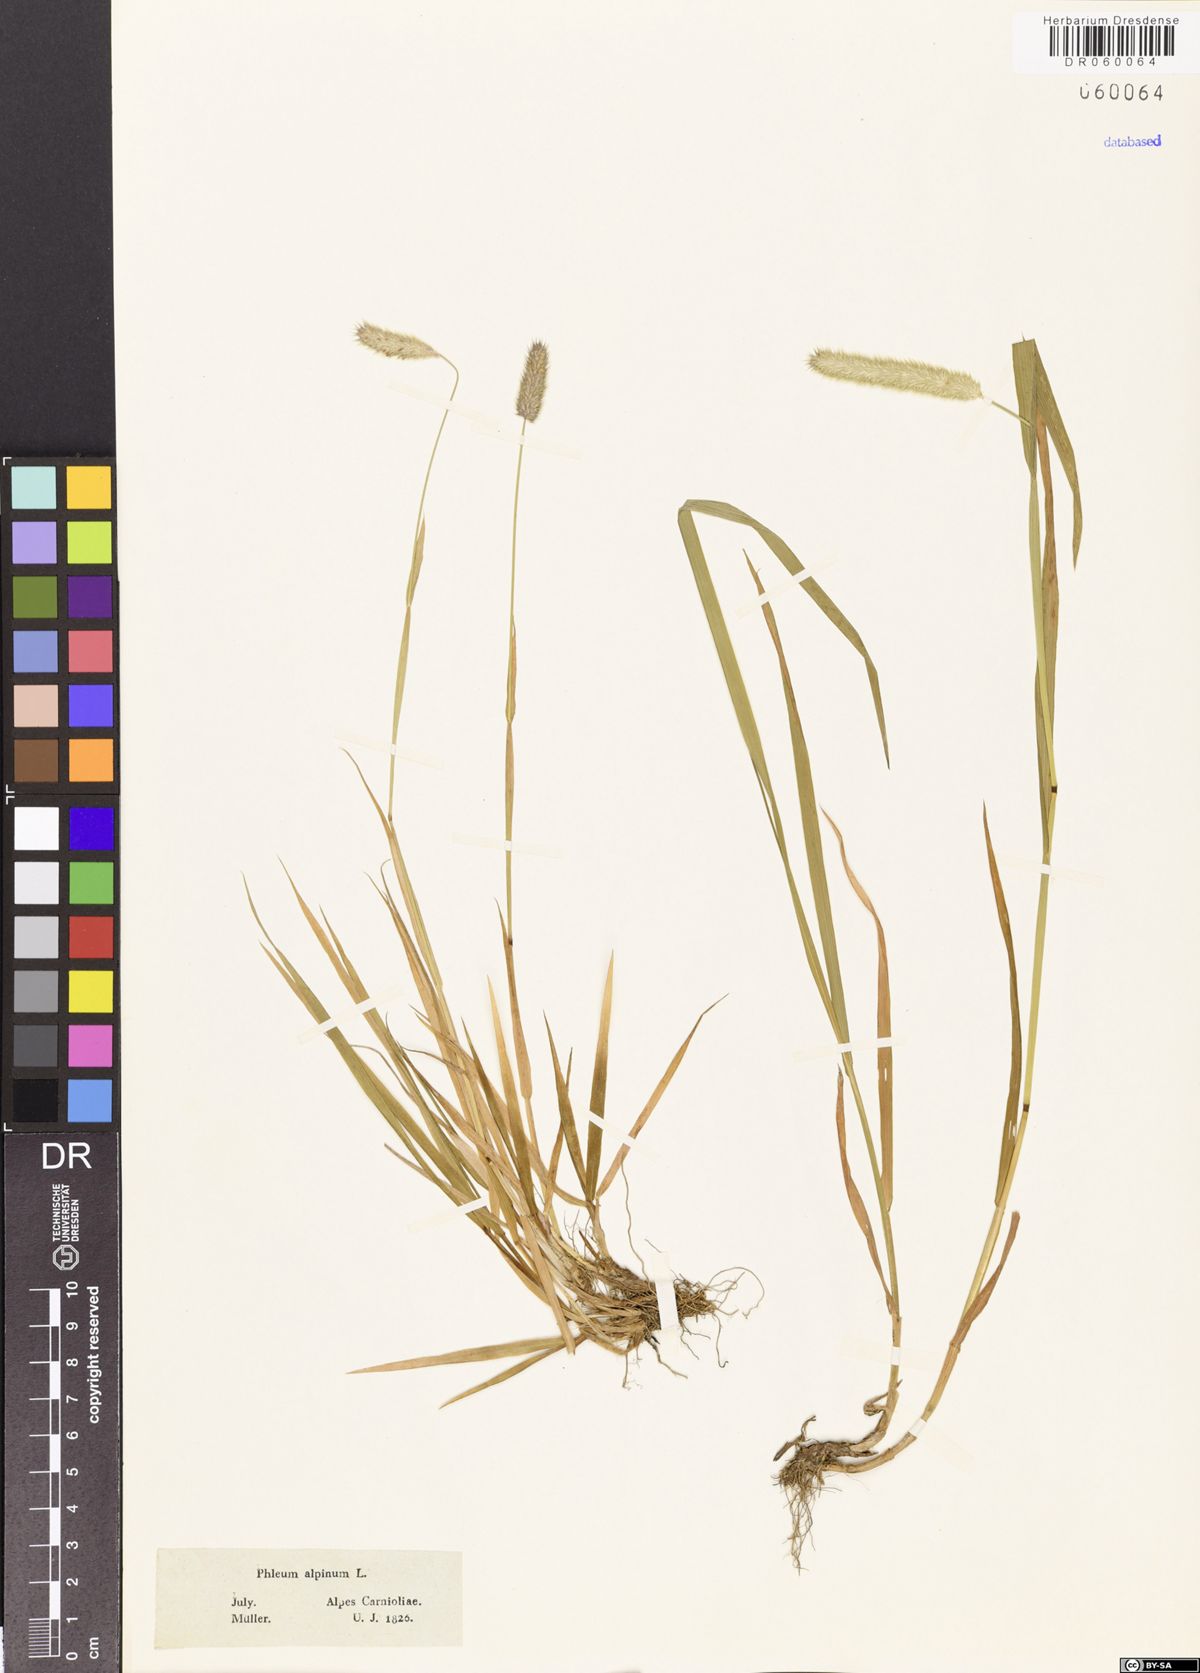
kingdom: Plantae
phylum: Tracheophyta
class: Liliopsida
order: Poales
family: Poaceae
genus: Phleum
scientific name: Phleum alpinum
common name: Alpine cat's-tail
